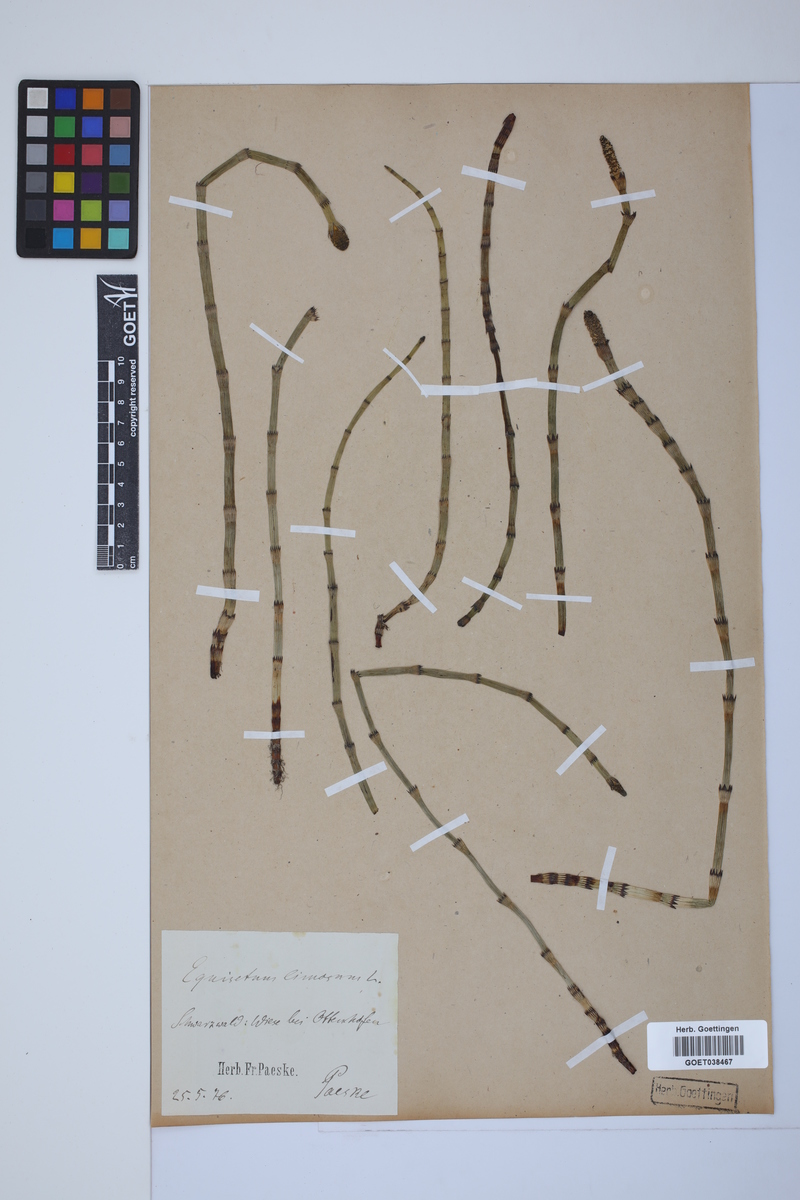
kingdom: Plantae
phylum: Tracheophyta
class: Polypodiopsida
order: Equisetales
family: Equisetaceae
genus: Equisetum
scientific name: Equisetum fluviatile
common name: Water horsetail
